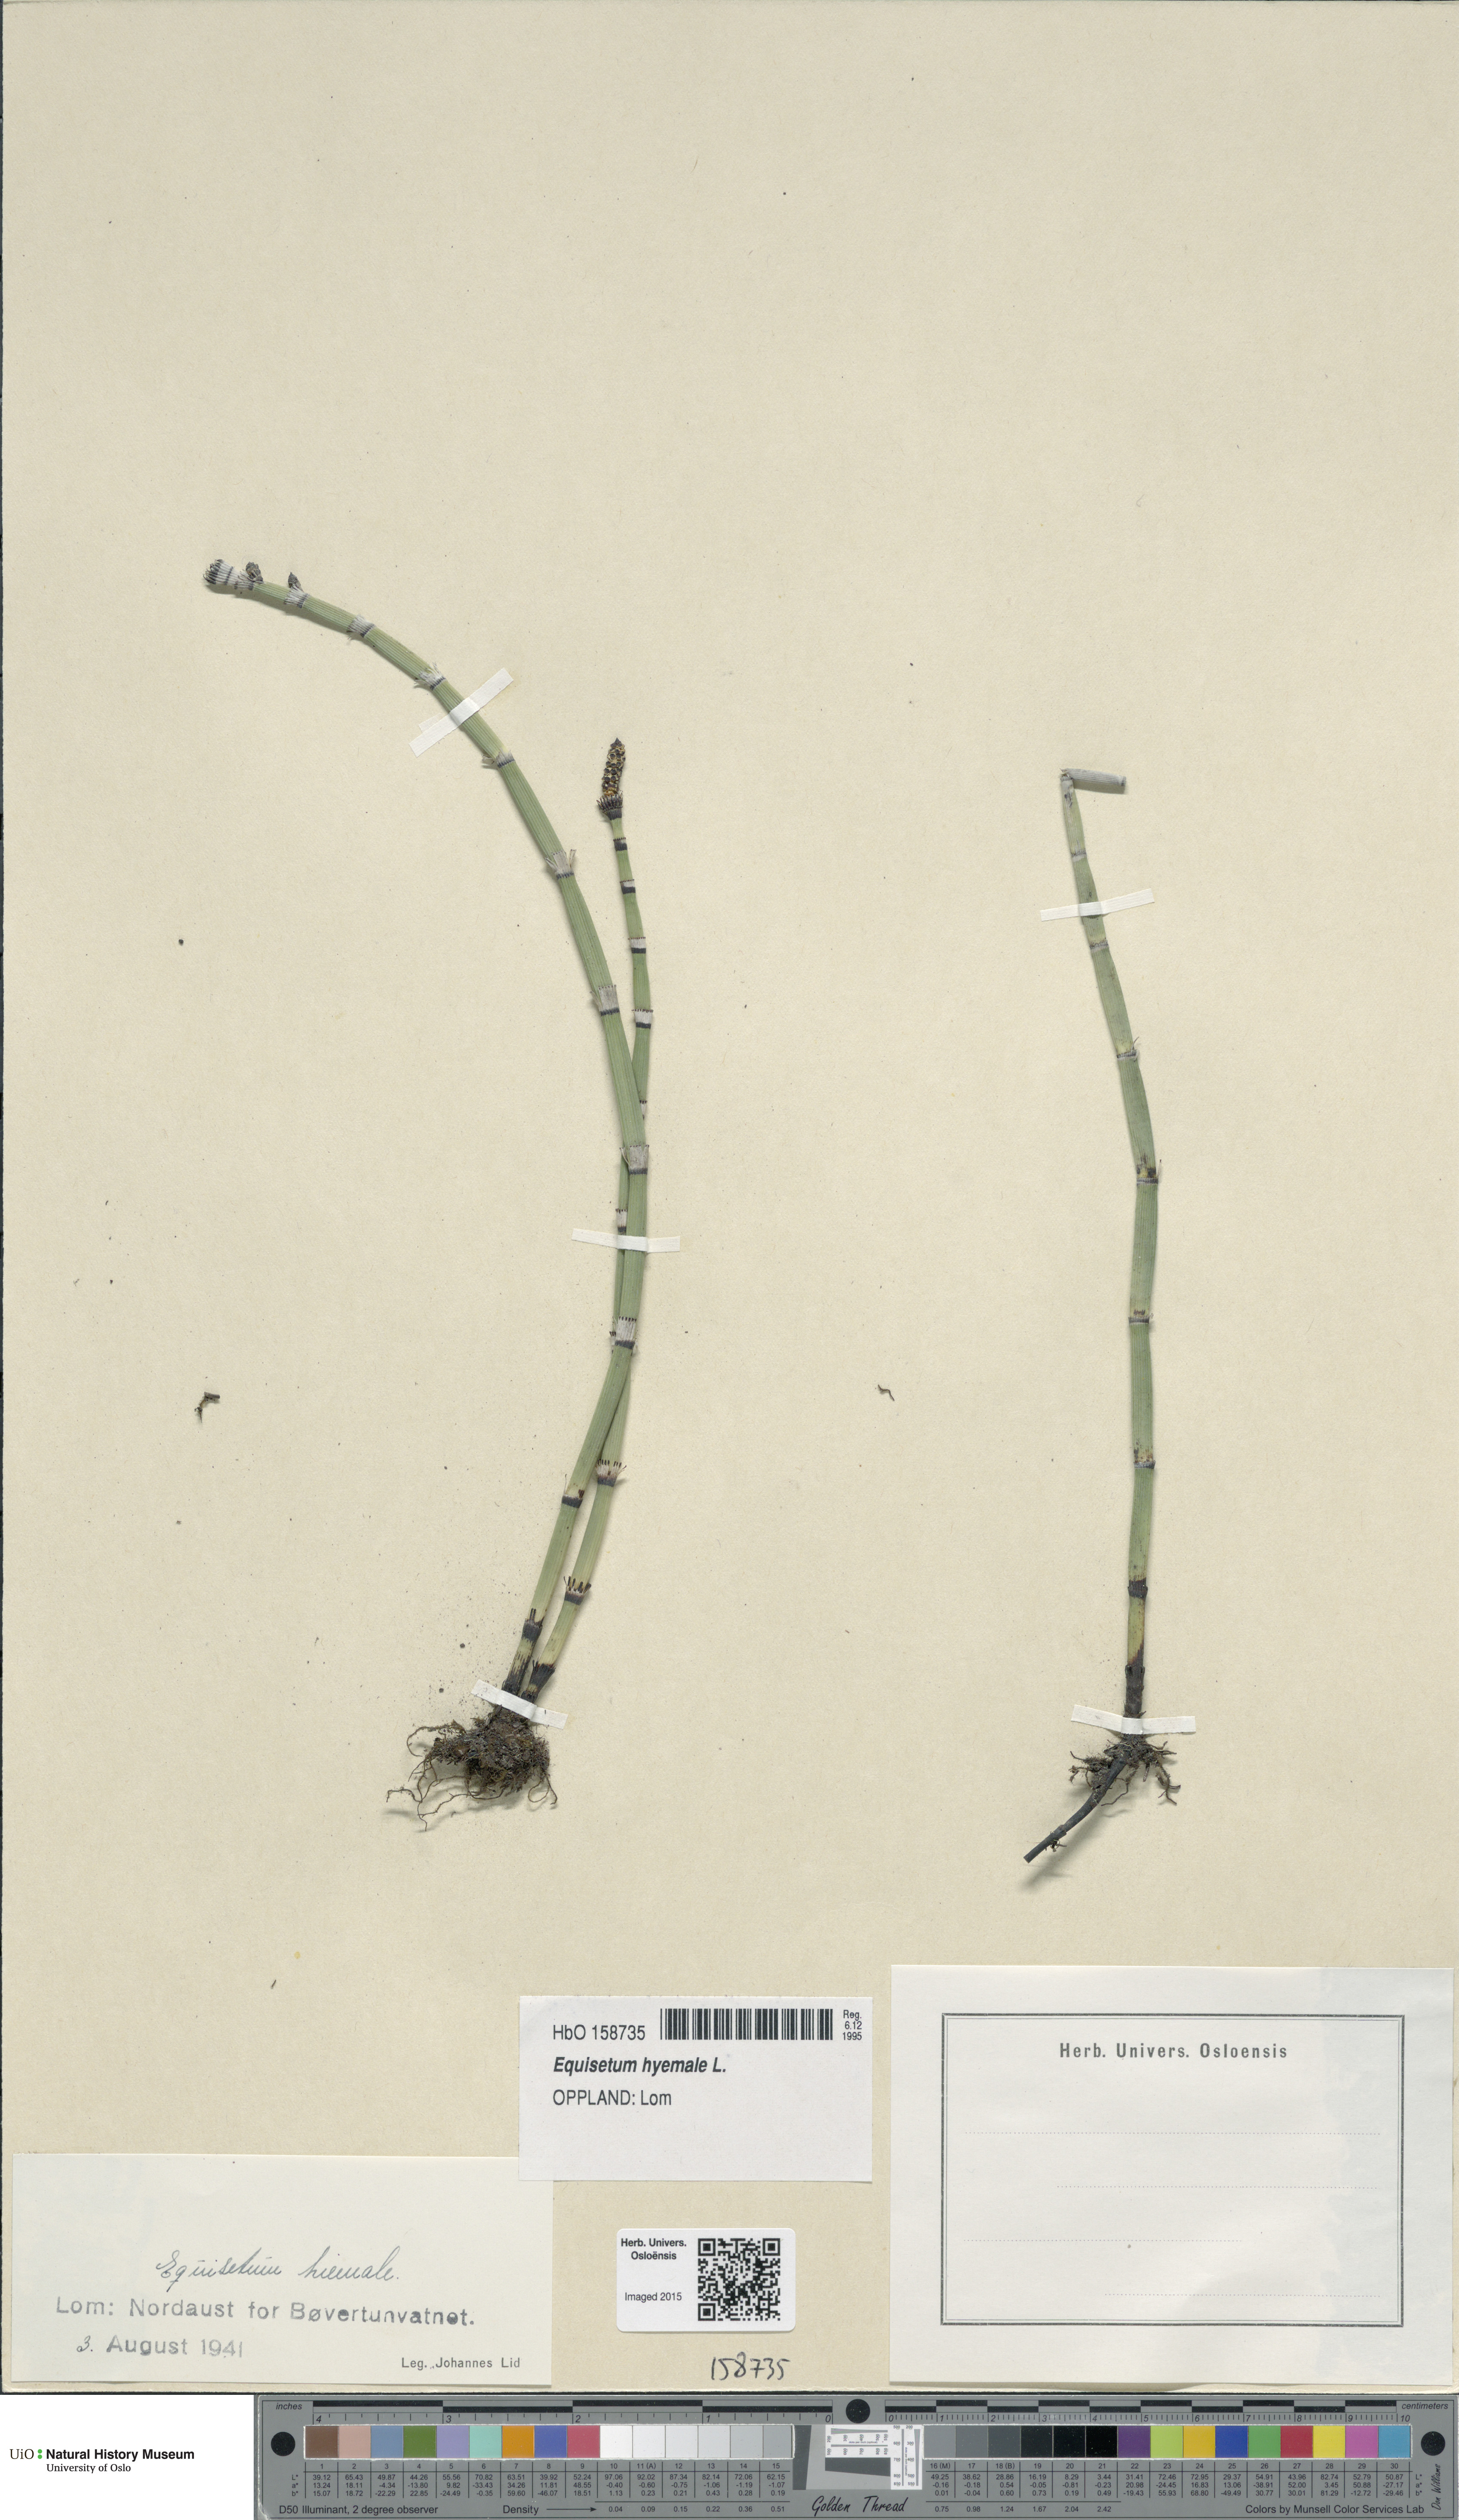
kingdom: Plantae
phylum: Tracheophyta
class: Polypodiopsida
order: Equisetales
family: Equisetaceae
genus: Equisetum
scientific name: Equisetum hyemale
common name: Rough horsetail
